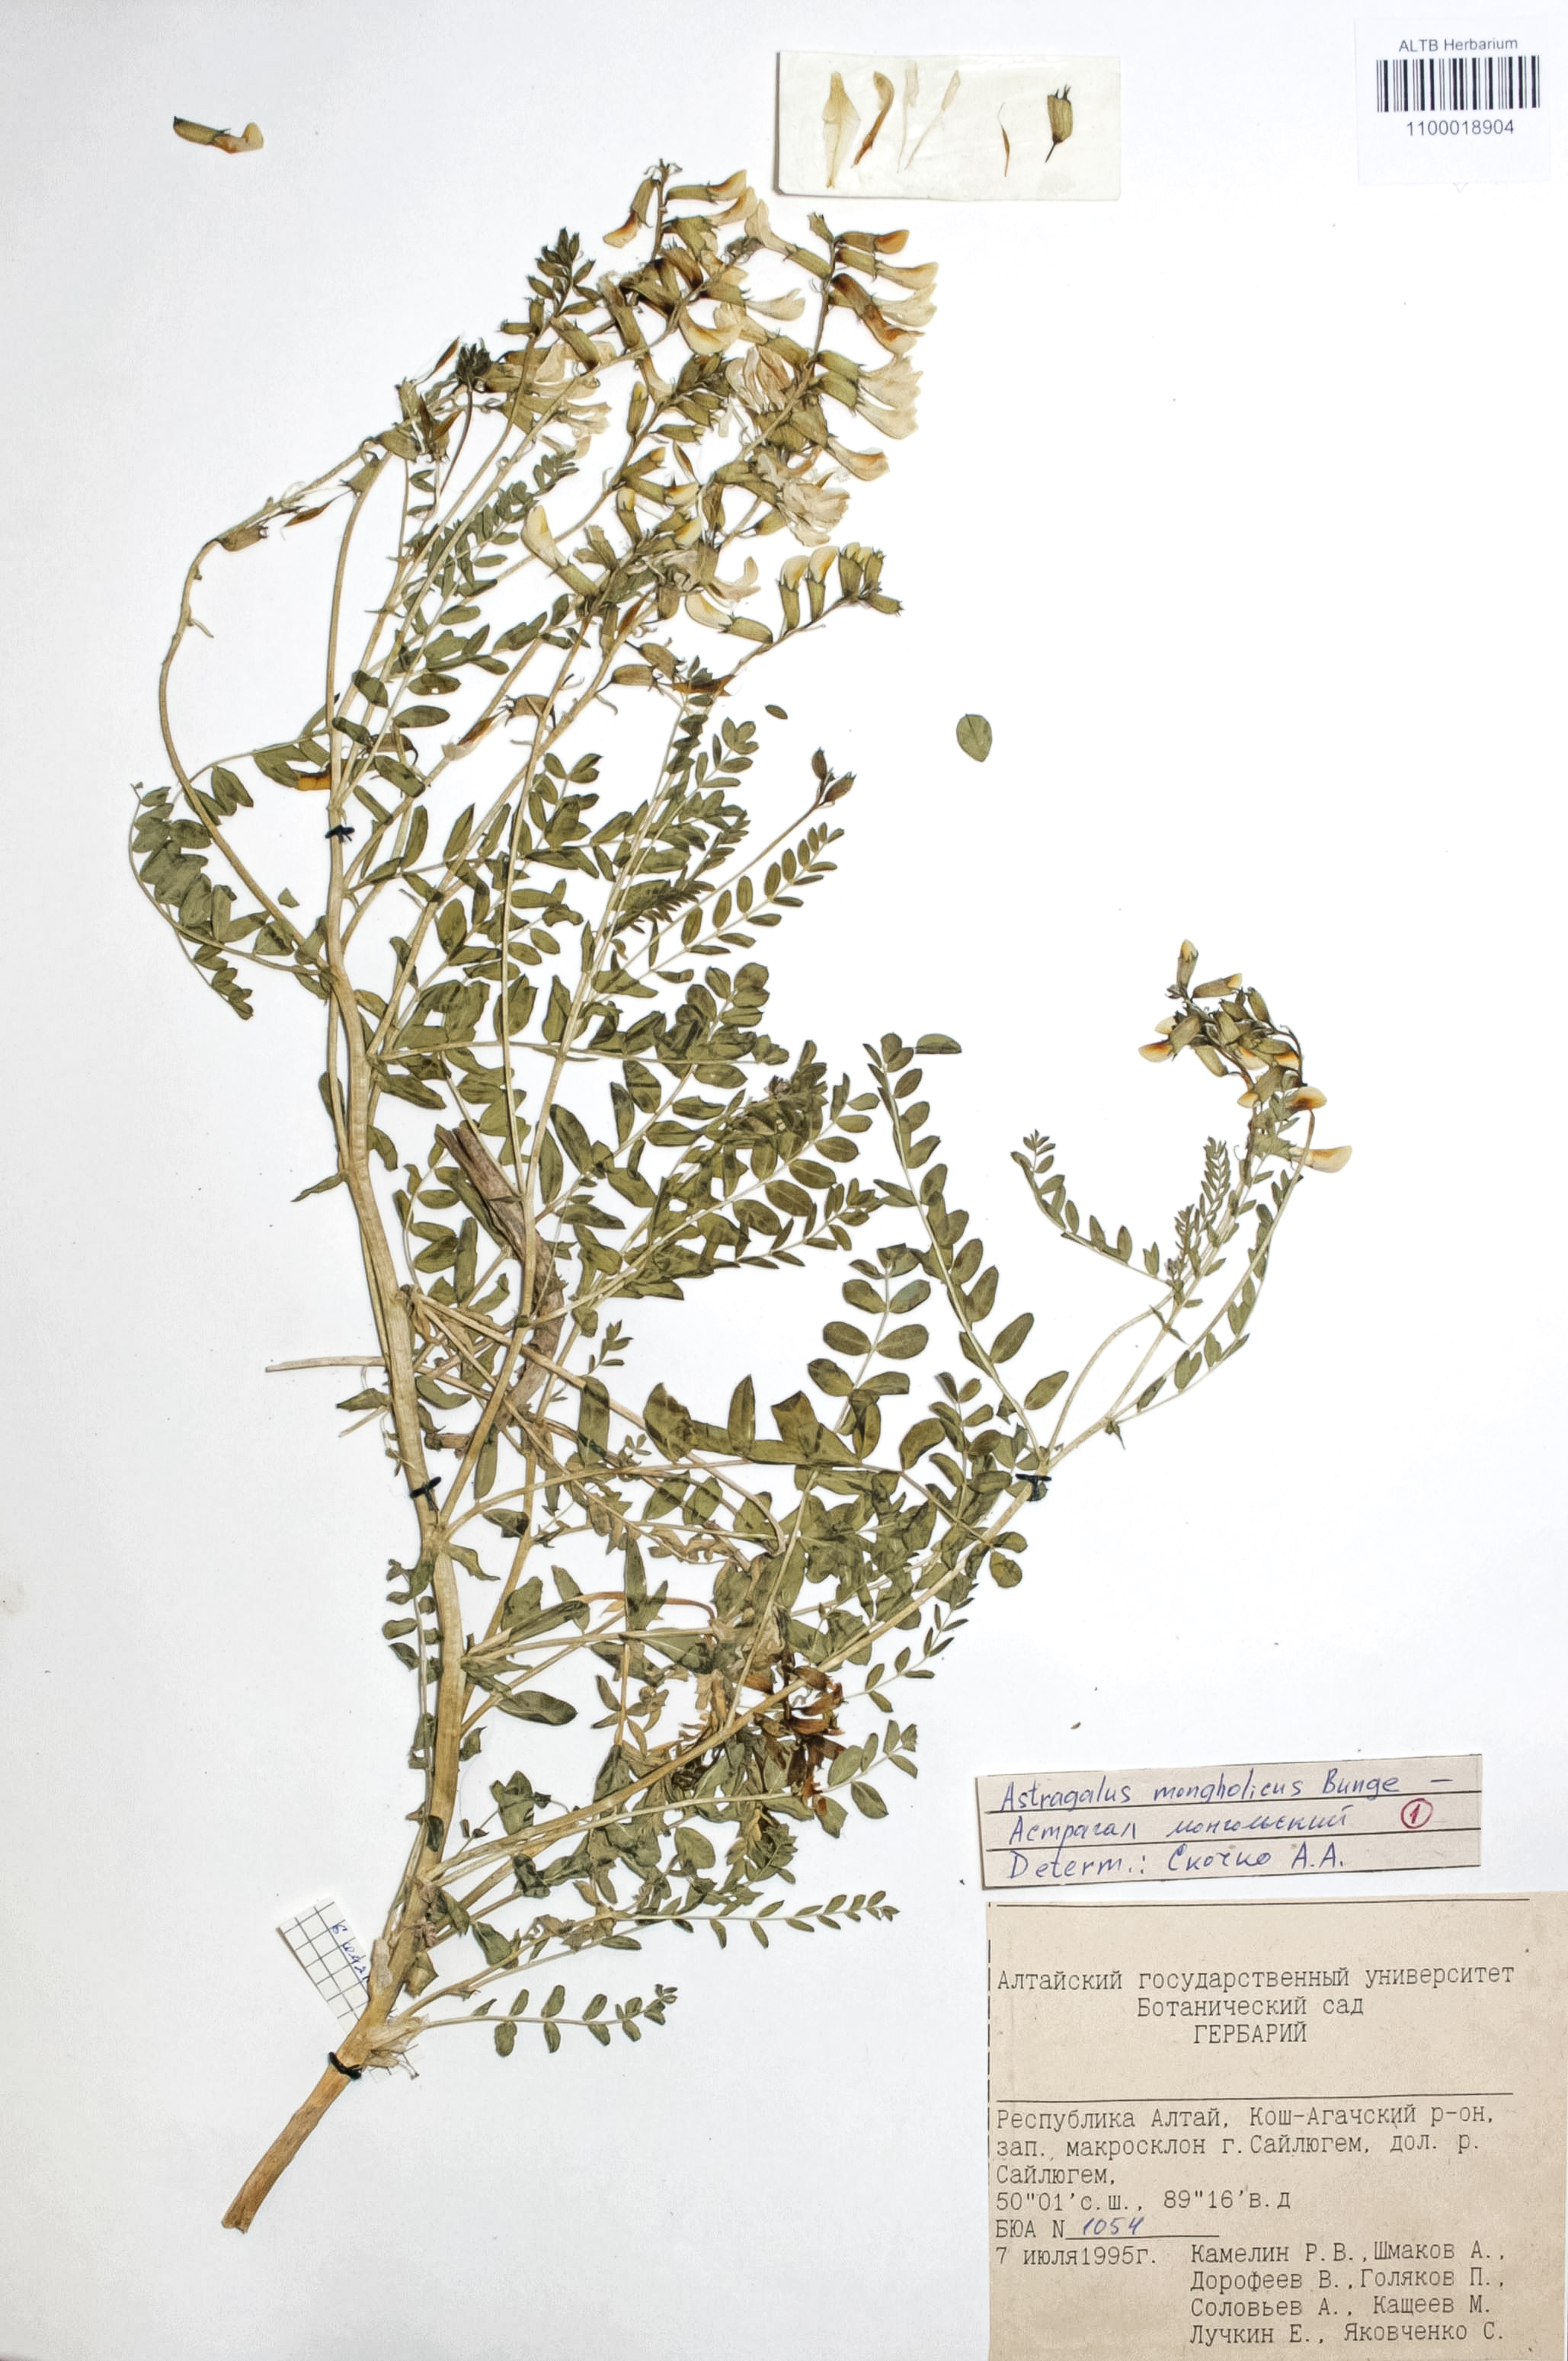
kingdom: Plantae
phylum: Tracheophyta
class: Magnoliopsida
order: Fabales
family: Fabaceae
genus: Astragalus
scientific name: Astragalus mongolicus
